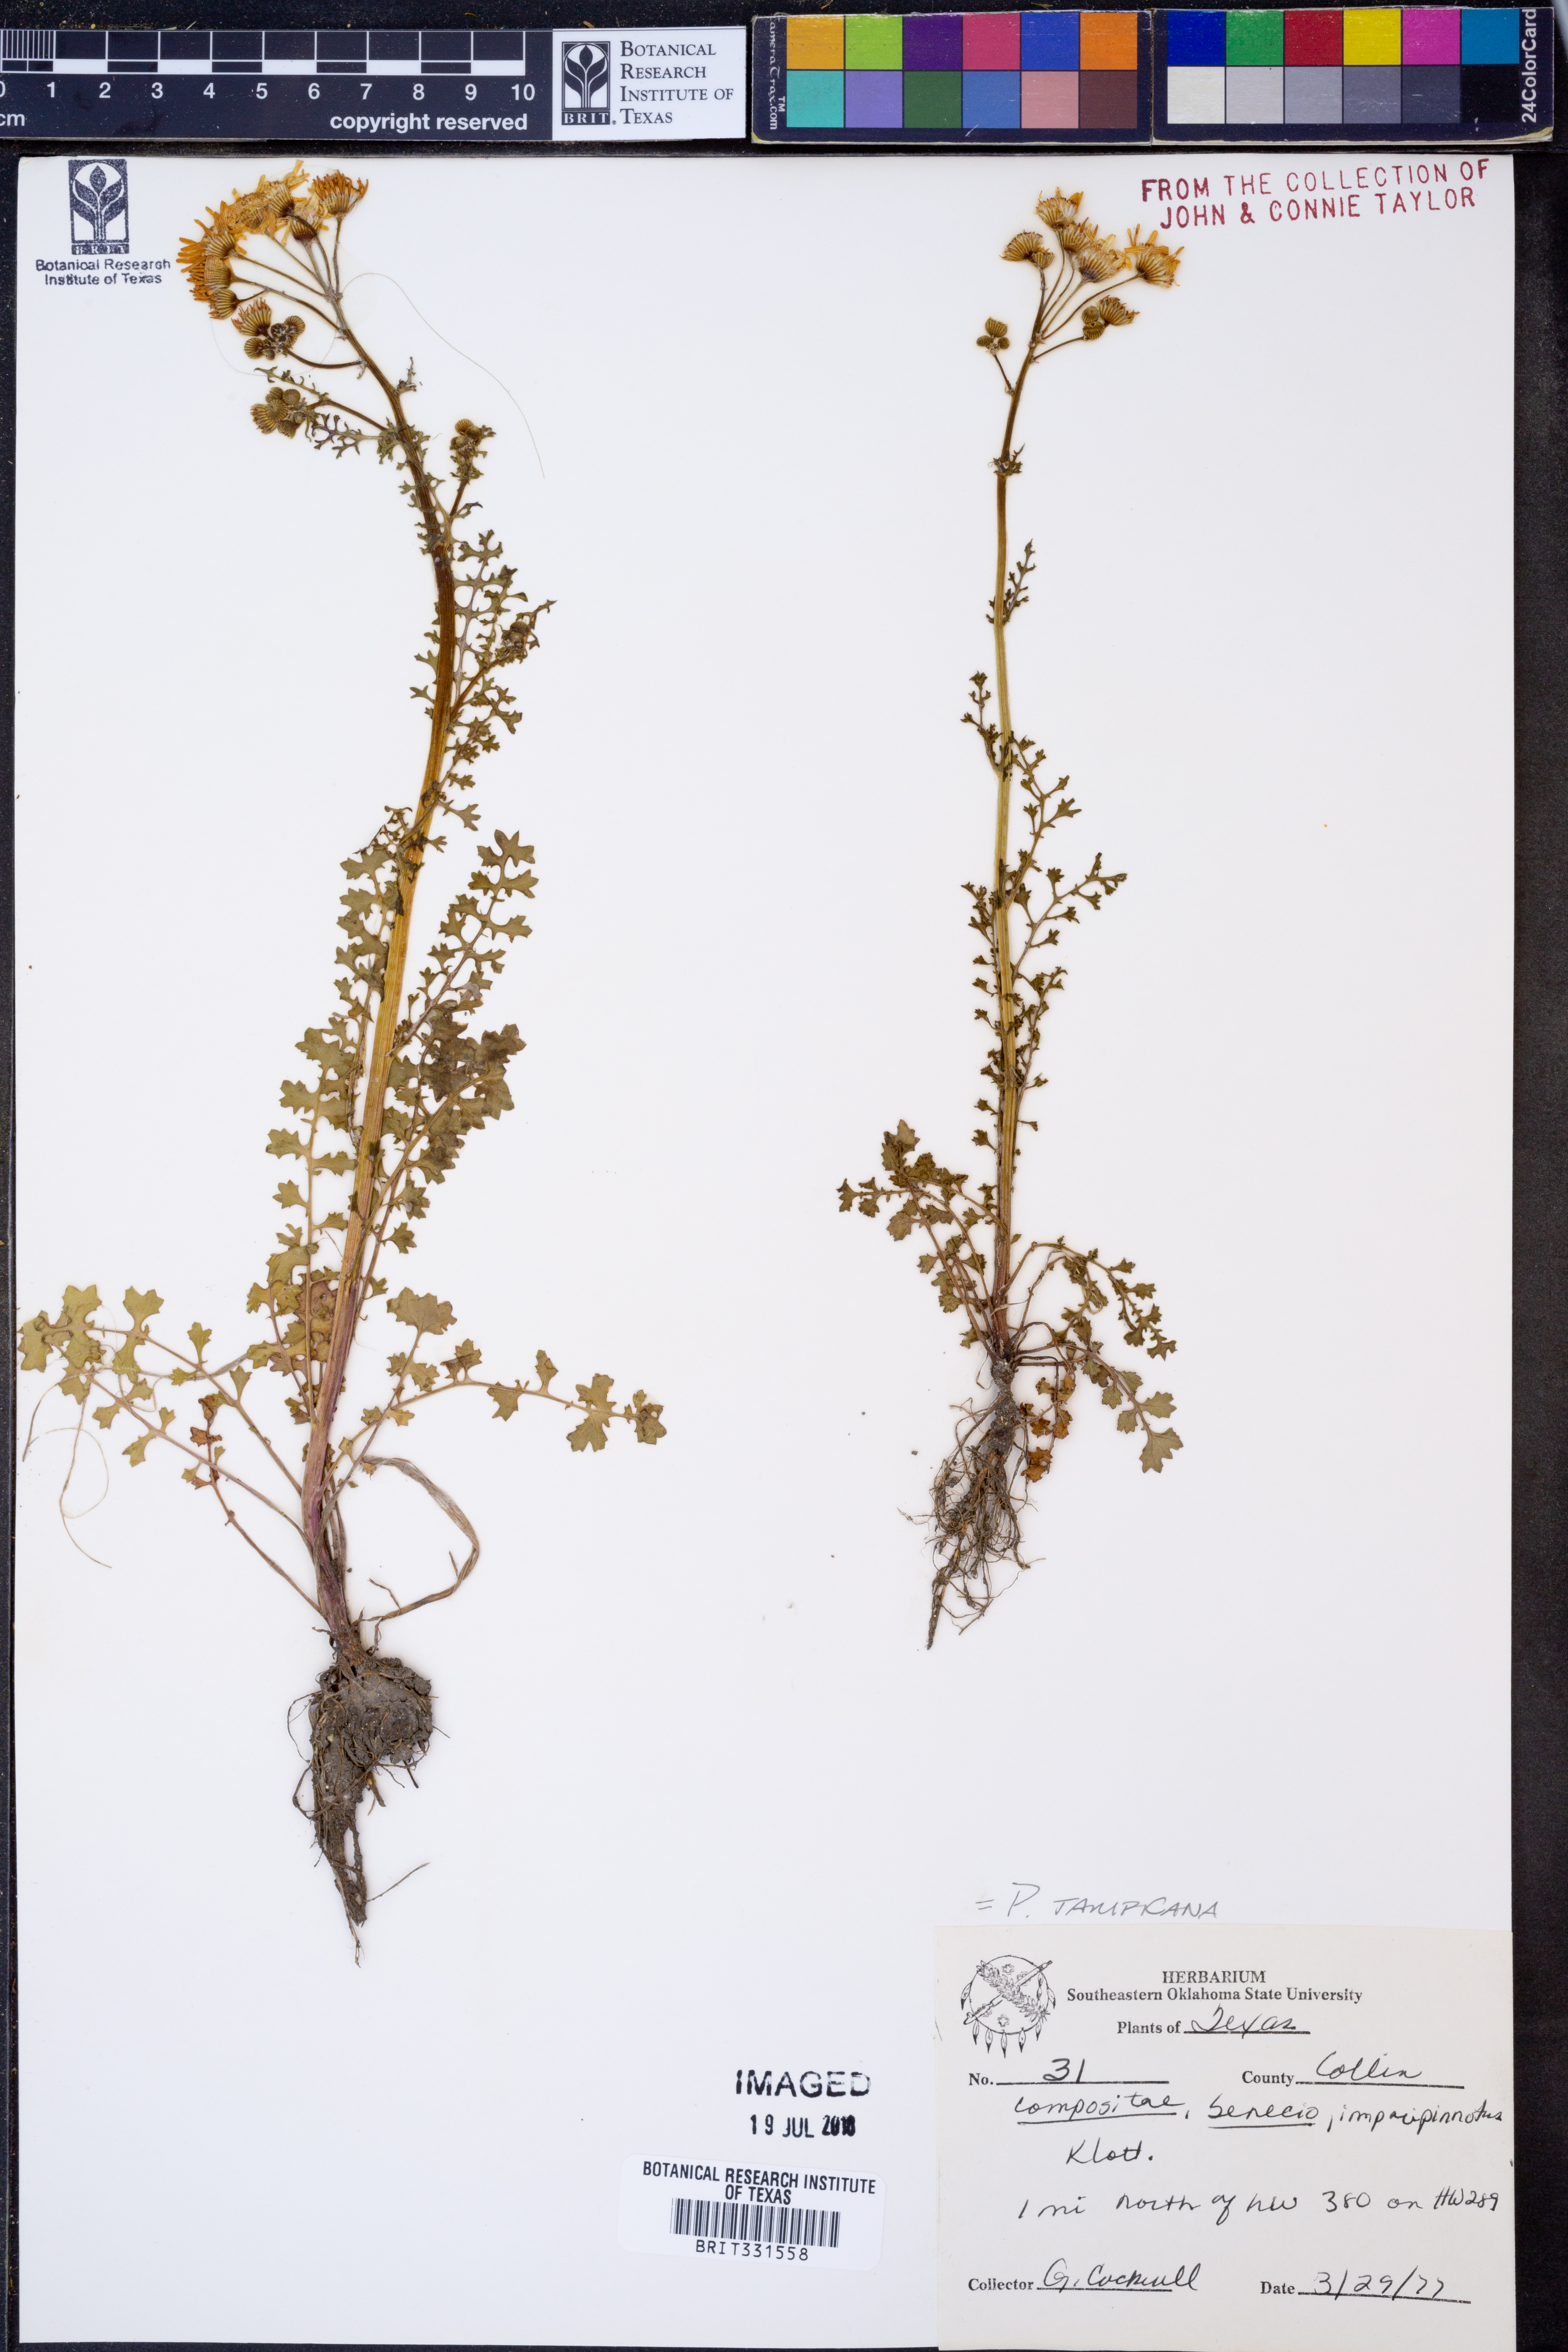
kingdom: Plantae
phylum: Tracheophyta
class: Magnoliopsida
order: Asterales
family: Asteraceae
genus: Packera
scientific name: Packera tampicana
